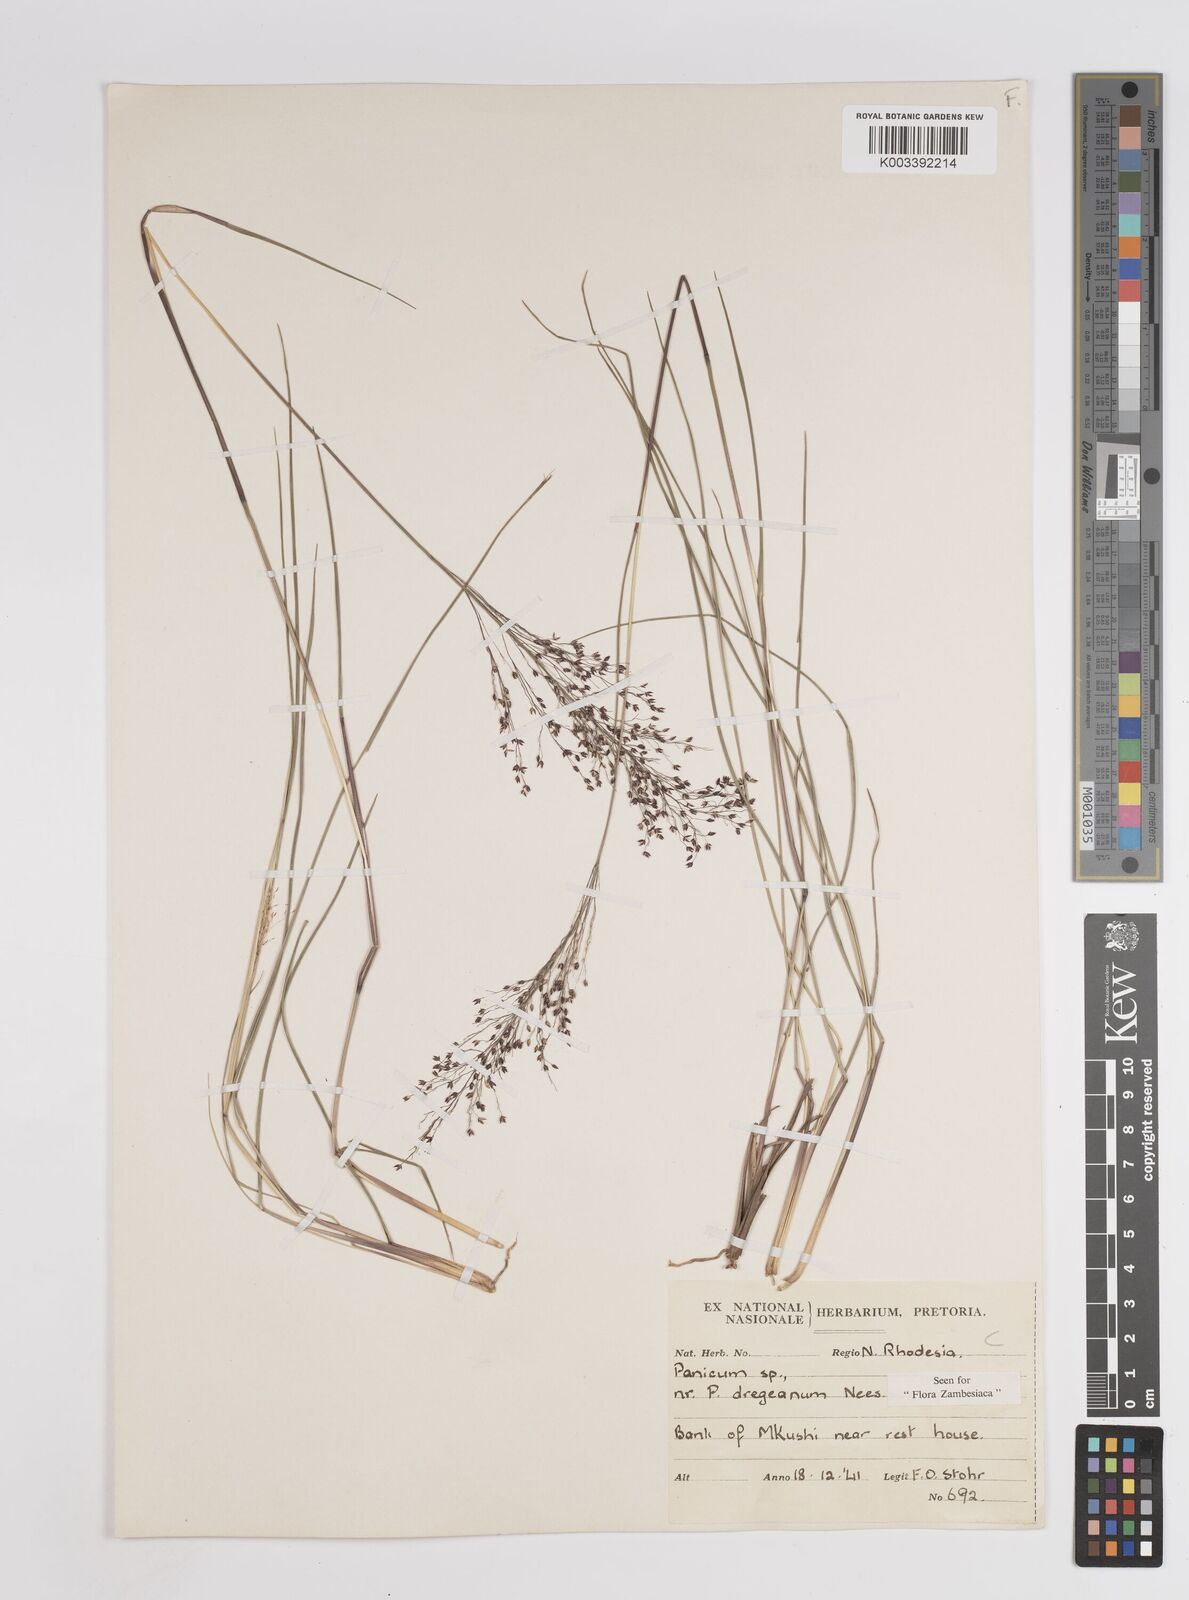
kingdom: Plantae
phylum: Tracheophyta
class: Liliopsida
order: Poales
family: Poaceae
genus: Panicum
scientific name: Panicum dregeanum
